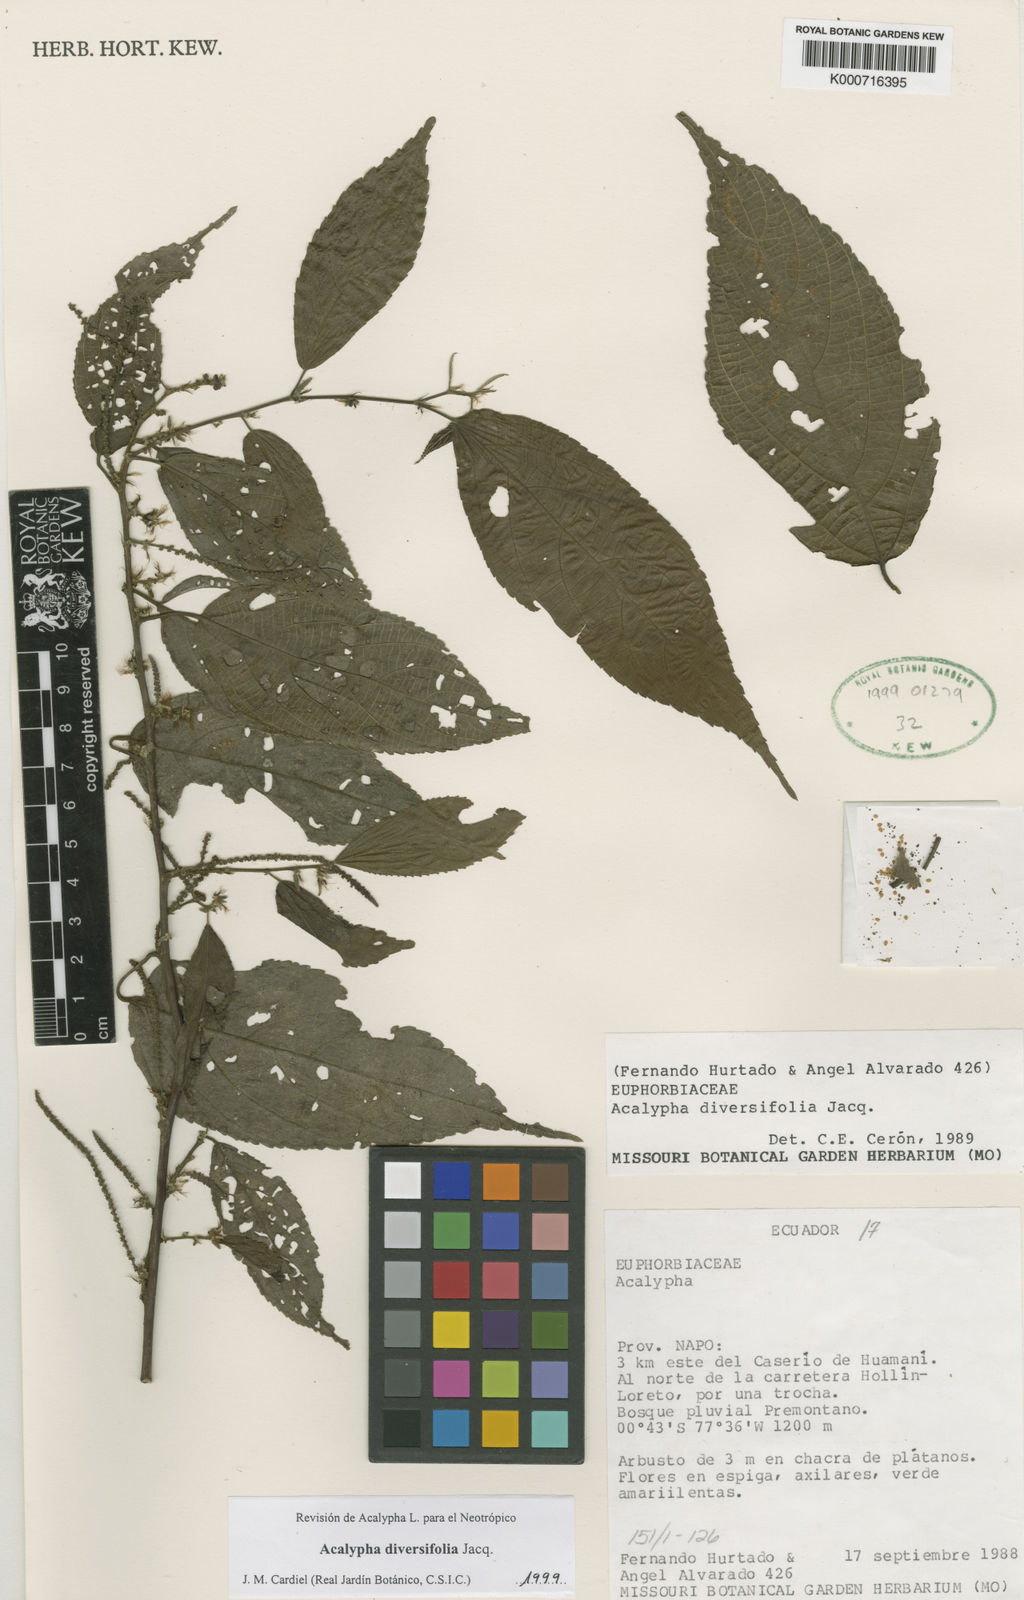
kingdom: Plantae
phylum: Tracheophyta
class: Magnoliopsida
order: Malpighiales
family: Euphorbiaceae
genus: Acalypha
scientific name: Acalypha diversifolia
